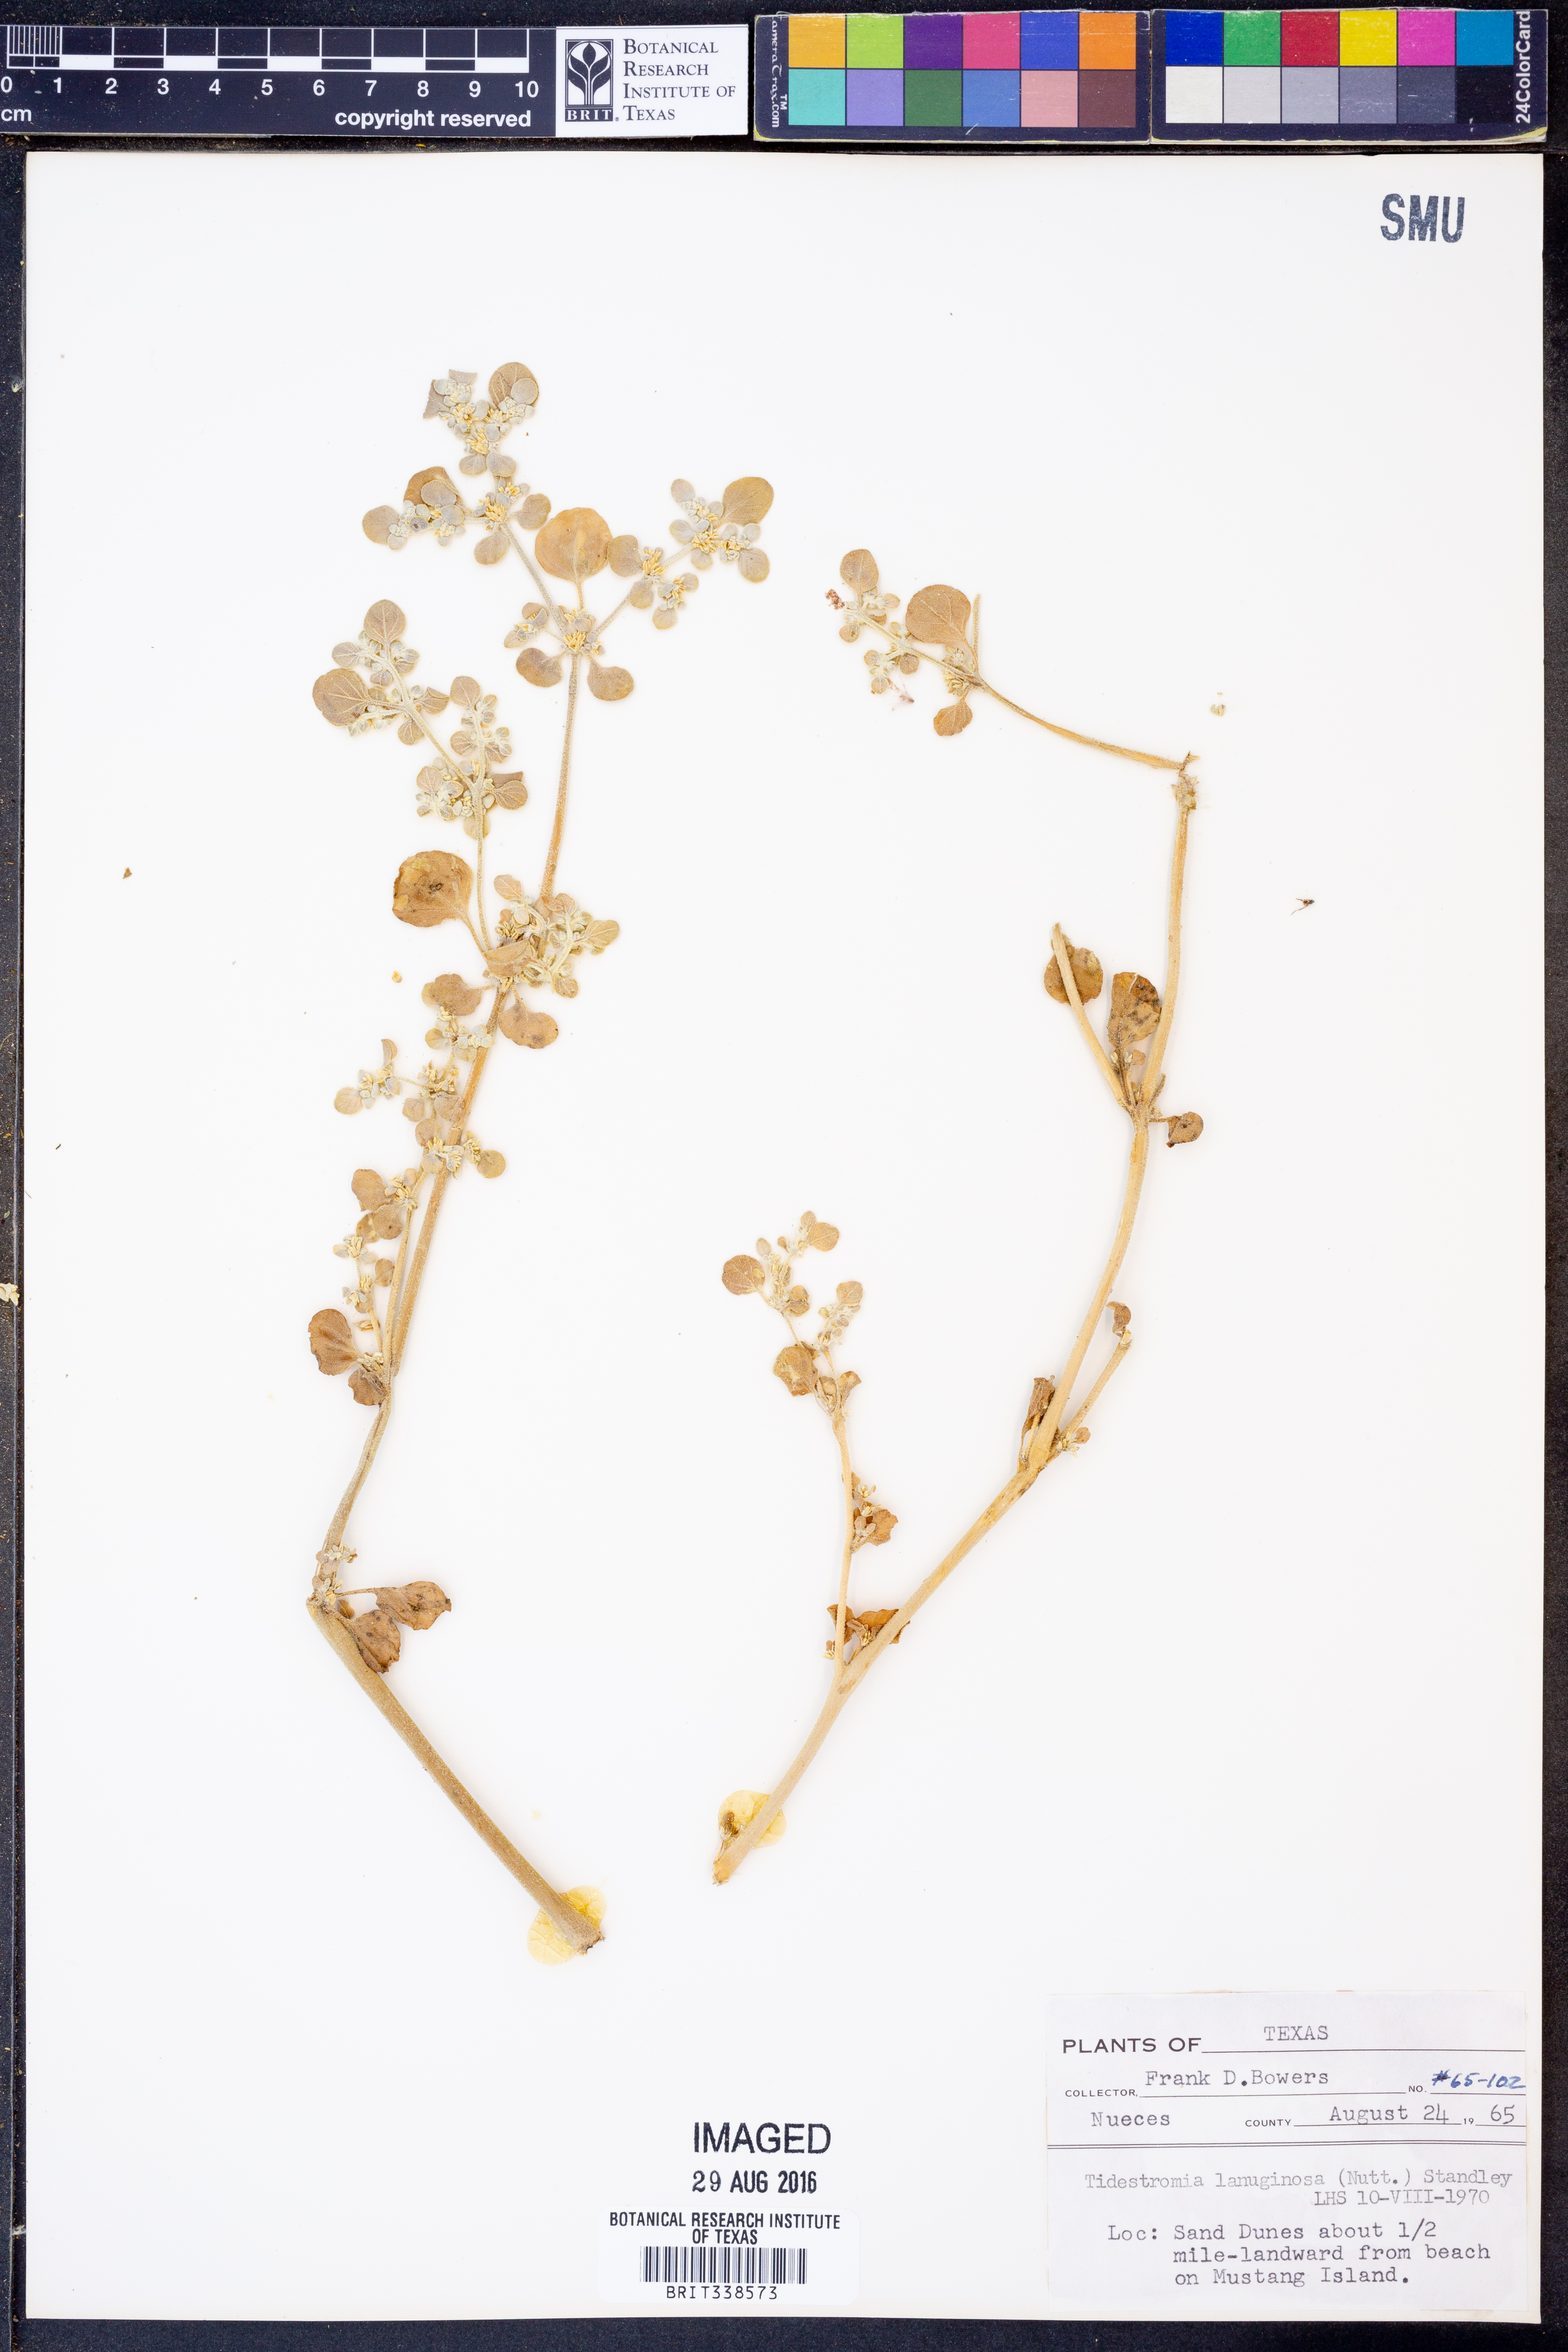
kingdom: Plantae
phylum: Tracheophyta
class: Magnoliopsida
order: Caryophyllales
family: Amaranthaceae
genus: Tidestromia
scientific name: Tidestromia lanuginosa
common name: Woolly tidestromia
